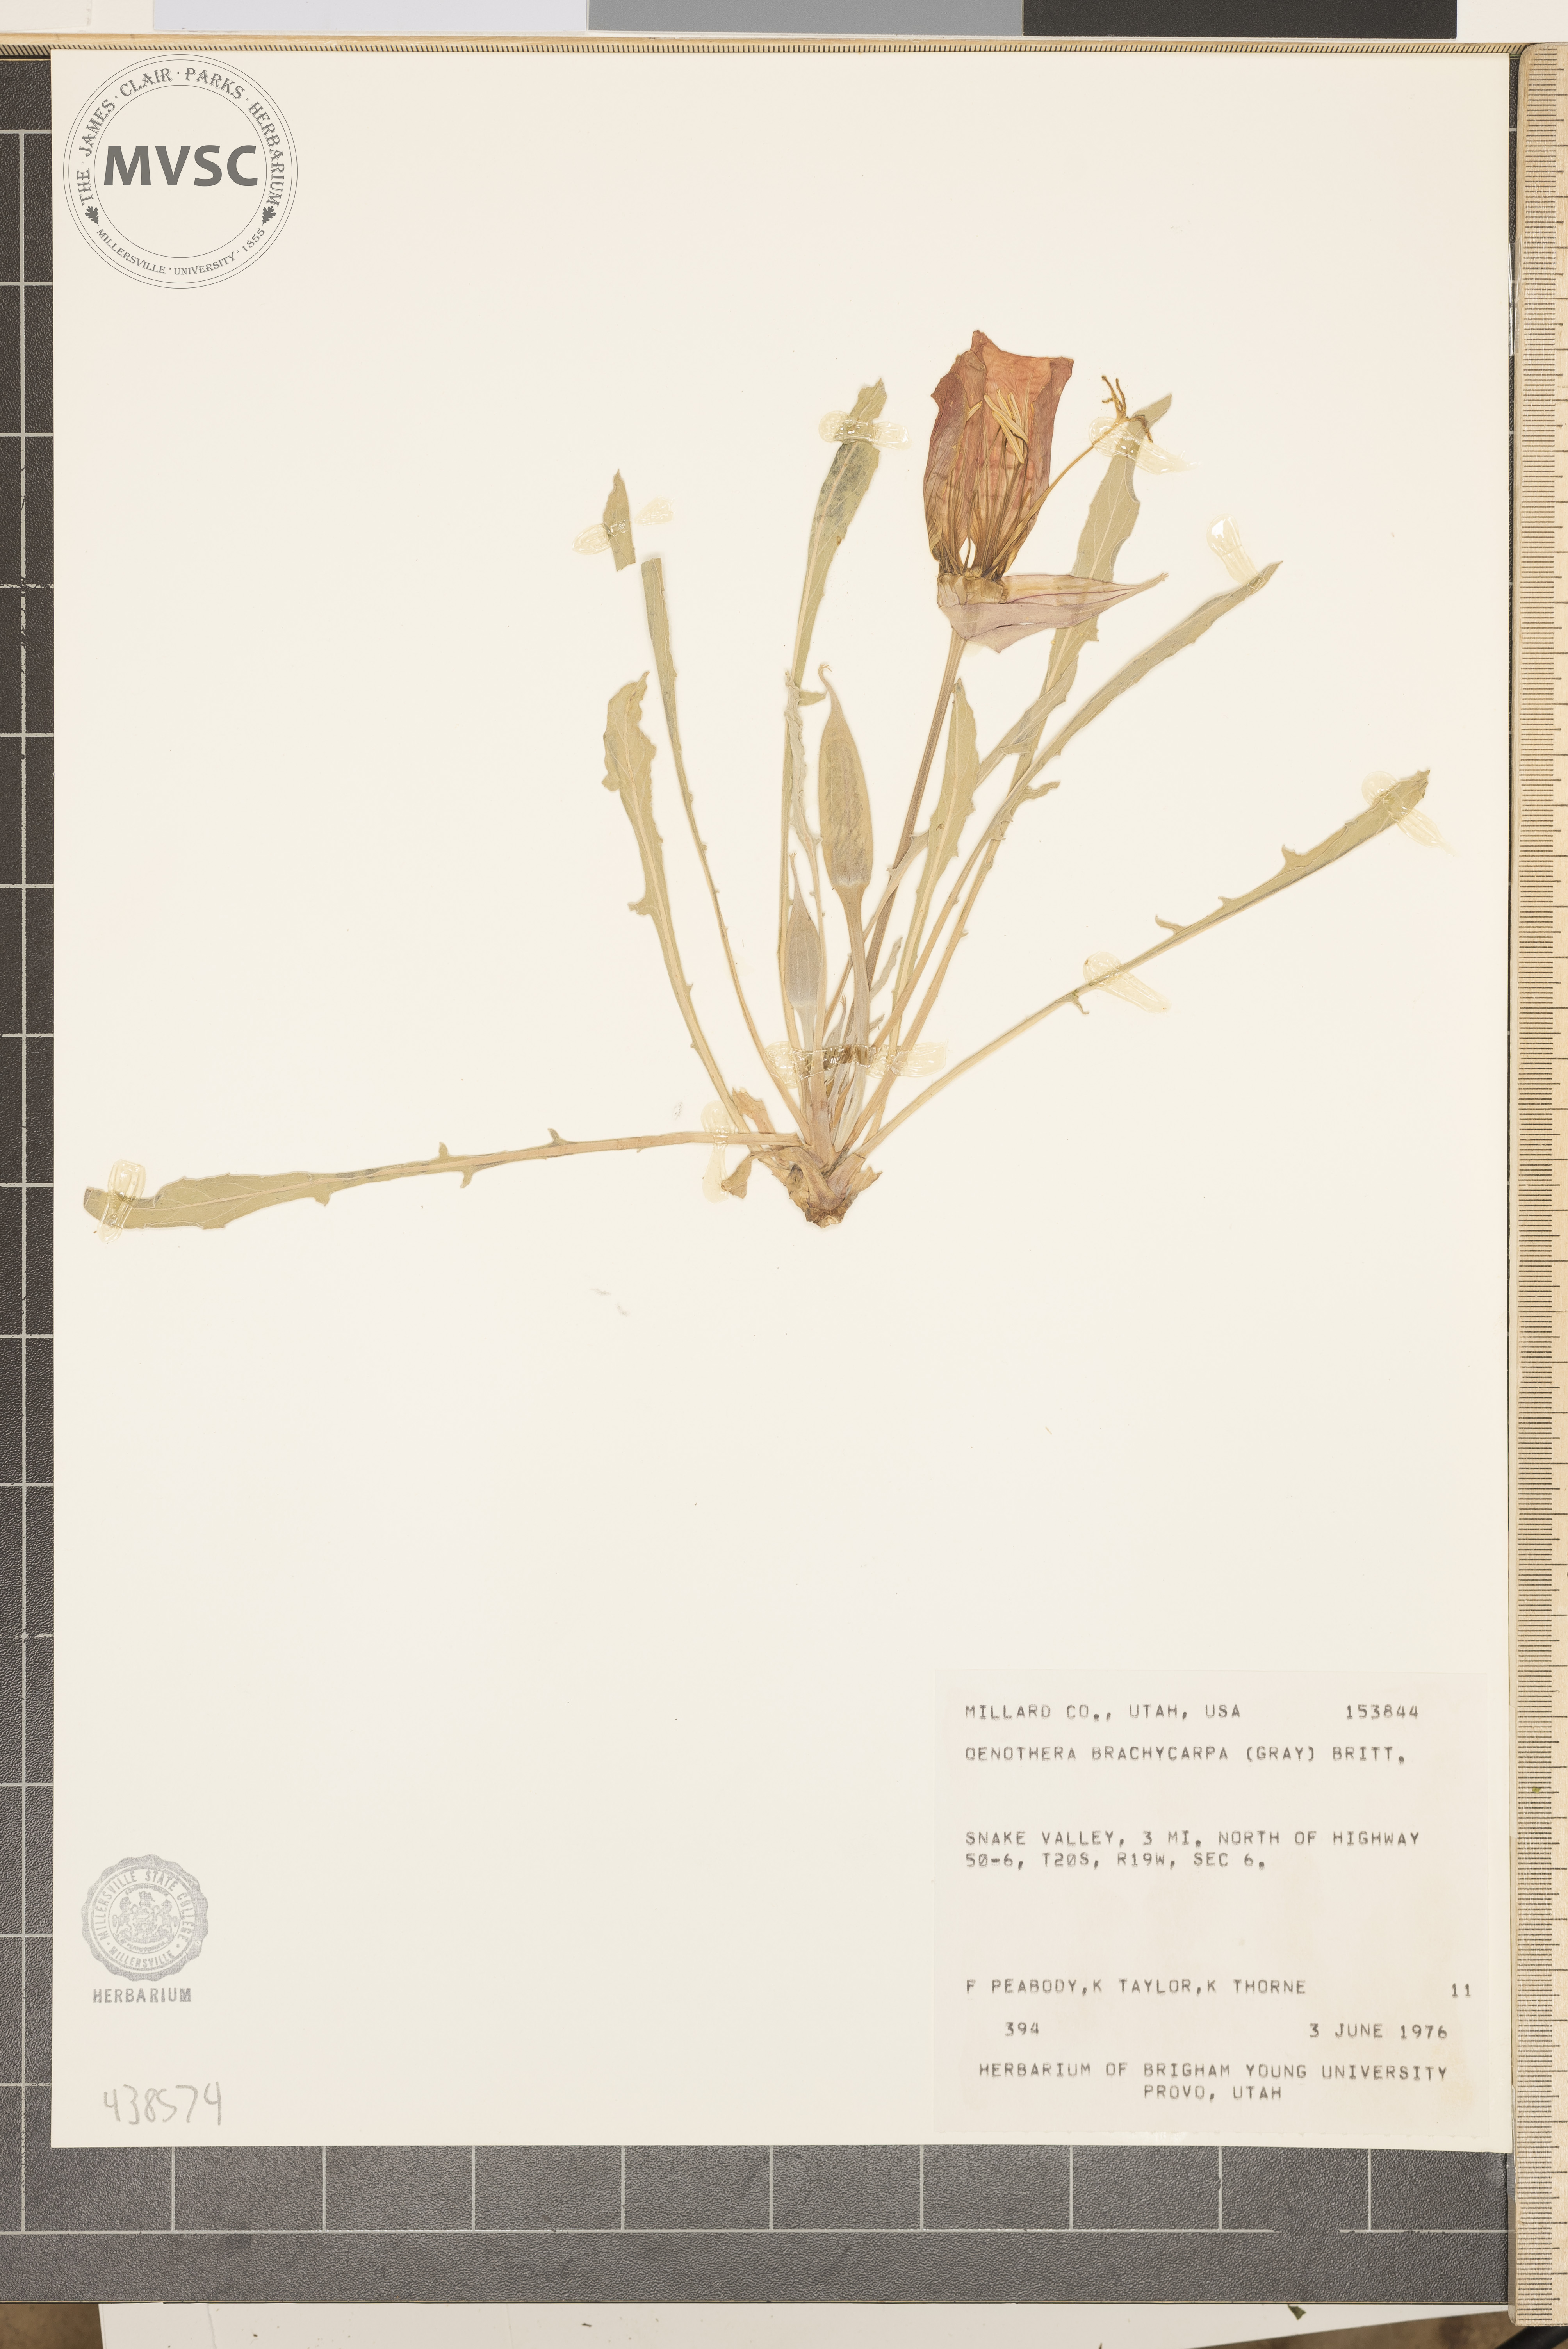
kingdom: Plantae
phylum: Tracheophyta
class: Magnoliopsida
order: Myrtales
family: Onagraceae
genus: Oenothera
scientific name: Oenothera cespitosa
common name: Tufted evening-primrose
